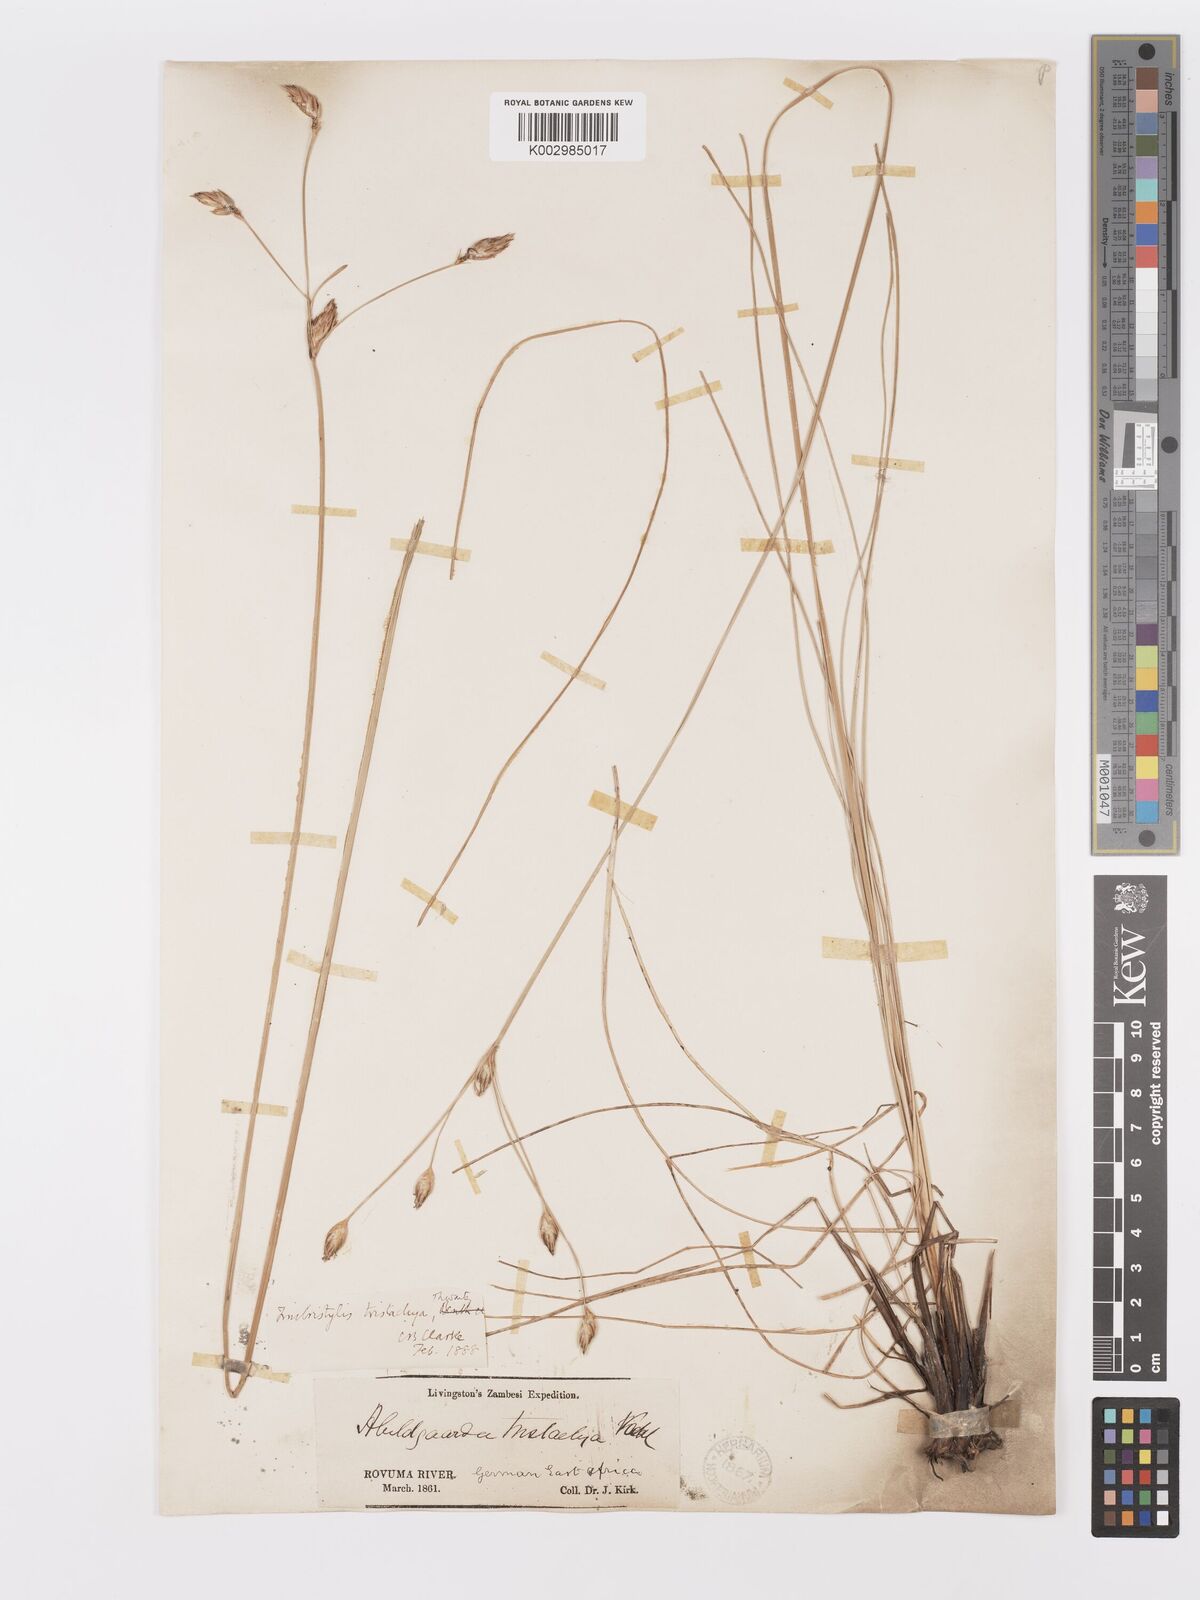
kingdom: Plantae
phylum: Tracheophyta
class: Liliopsida
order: Poales
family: Cyperaceae
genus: Abildgaardia
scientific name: Abildgaardia triflora
